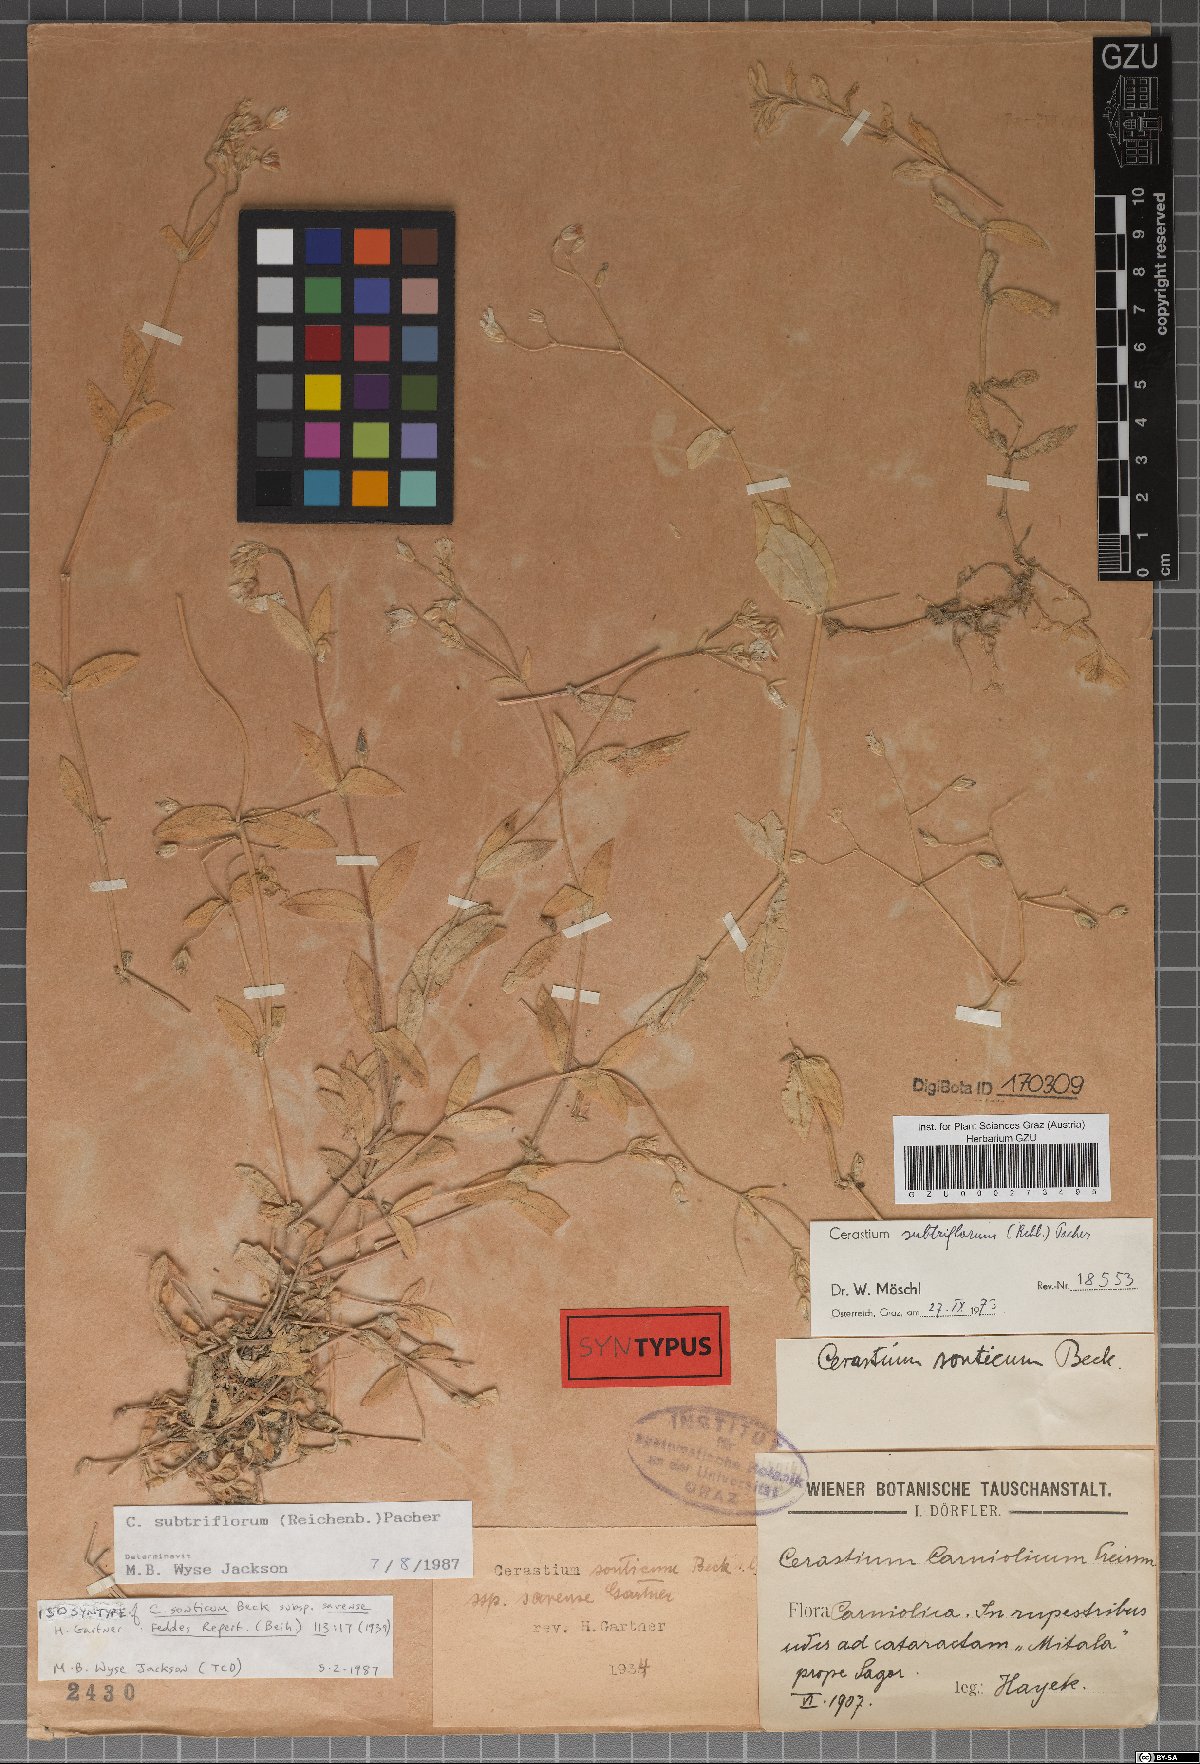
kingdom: Plantae
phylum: Tracheophyta
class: Magnoliopsida
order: Caryophyllales
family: Caryophyllaceae
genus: Cerastium
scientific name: Cerastium subtriflorum
